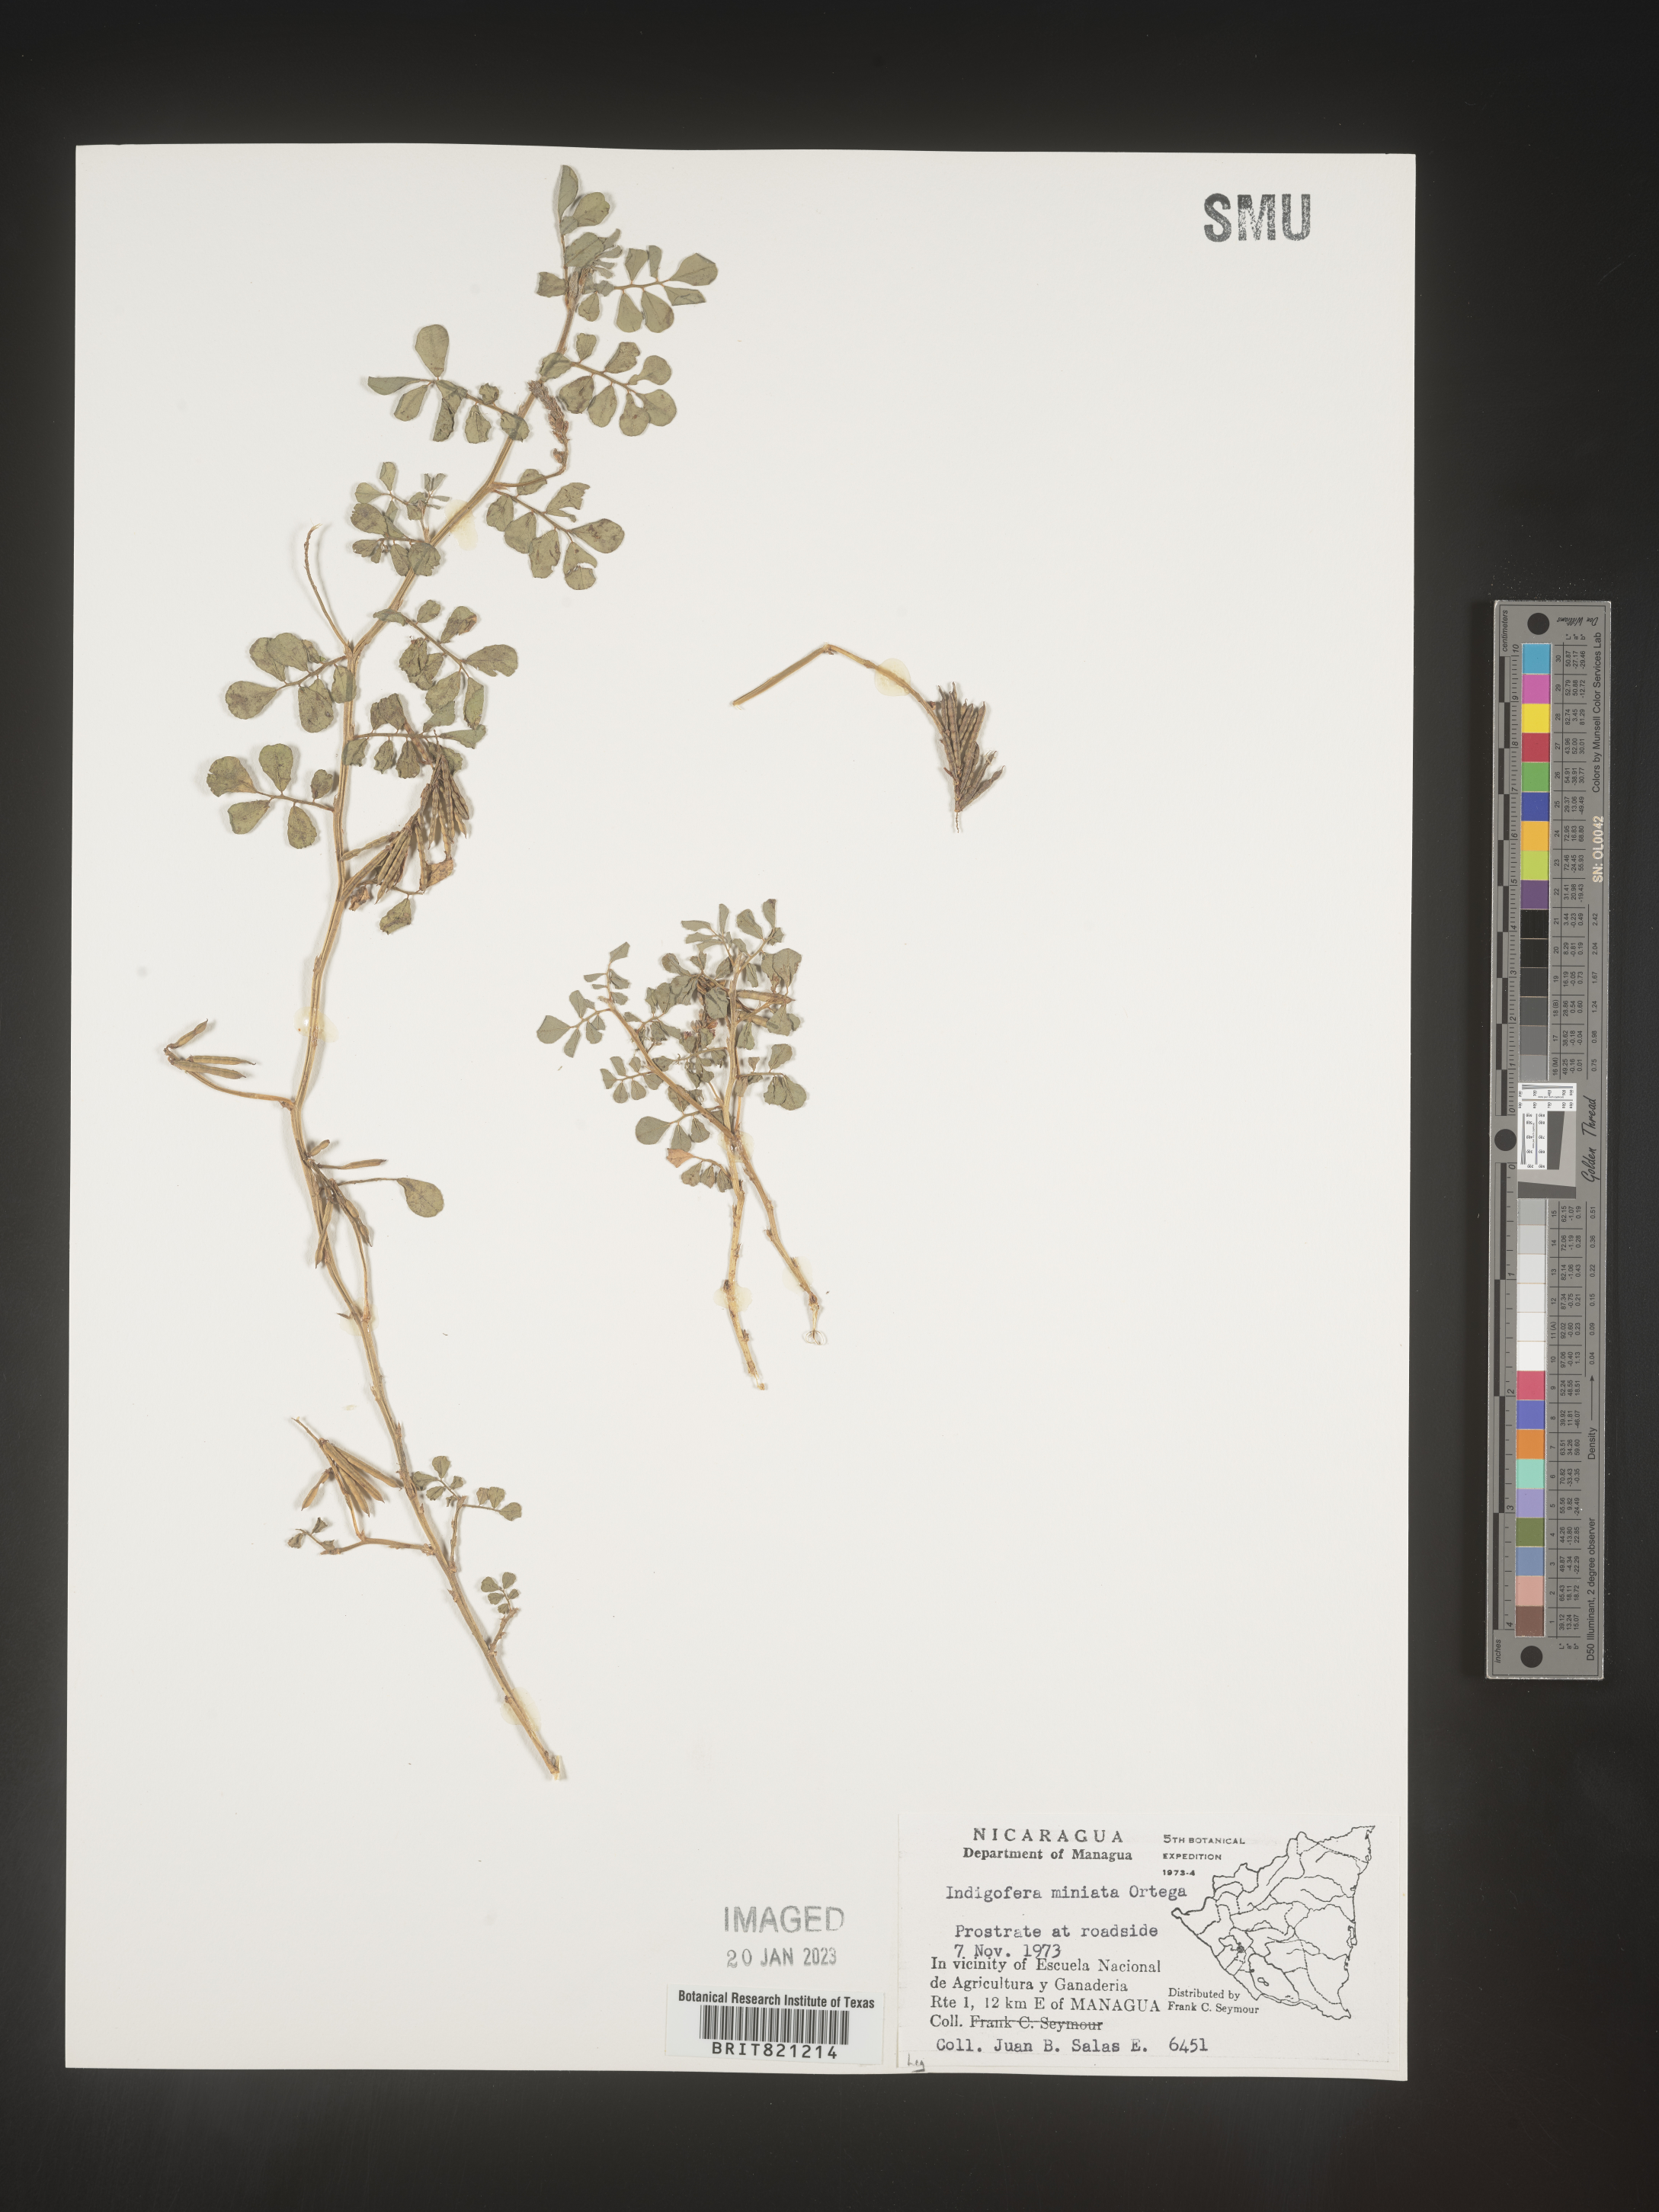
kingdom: Plantae
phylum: Tracheophyta
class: Magnoliopsida
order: Fabales
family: Fabaceae
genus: Indigofera
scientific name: Indigofera
